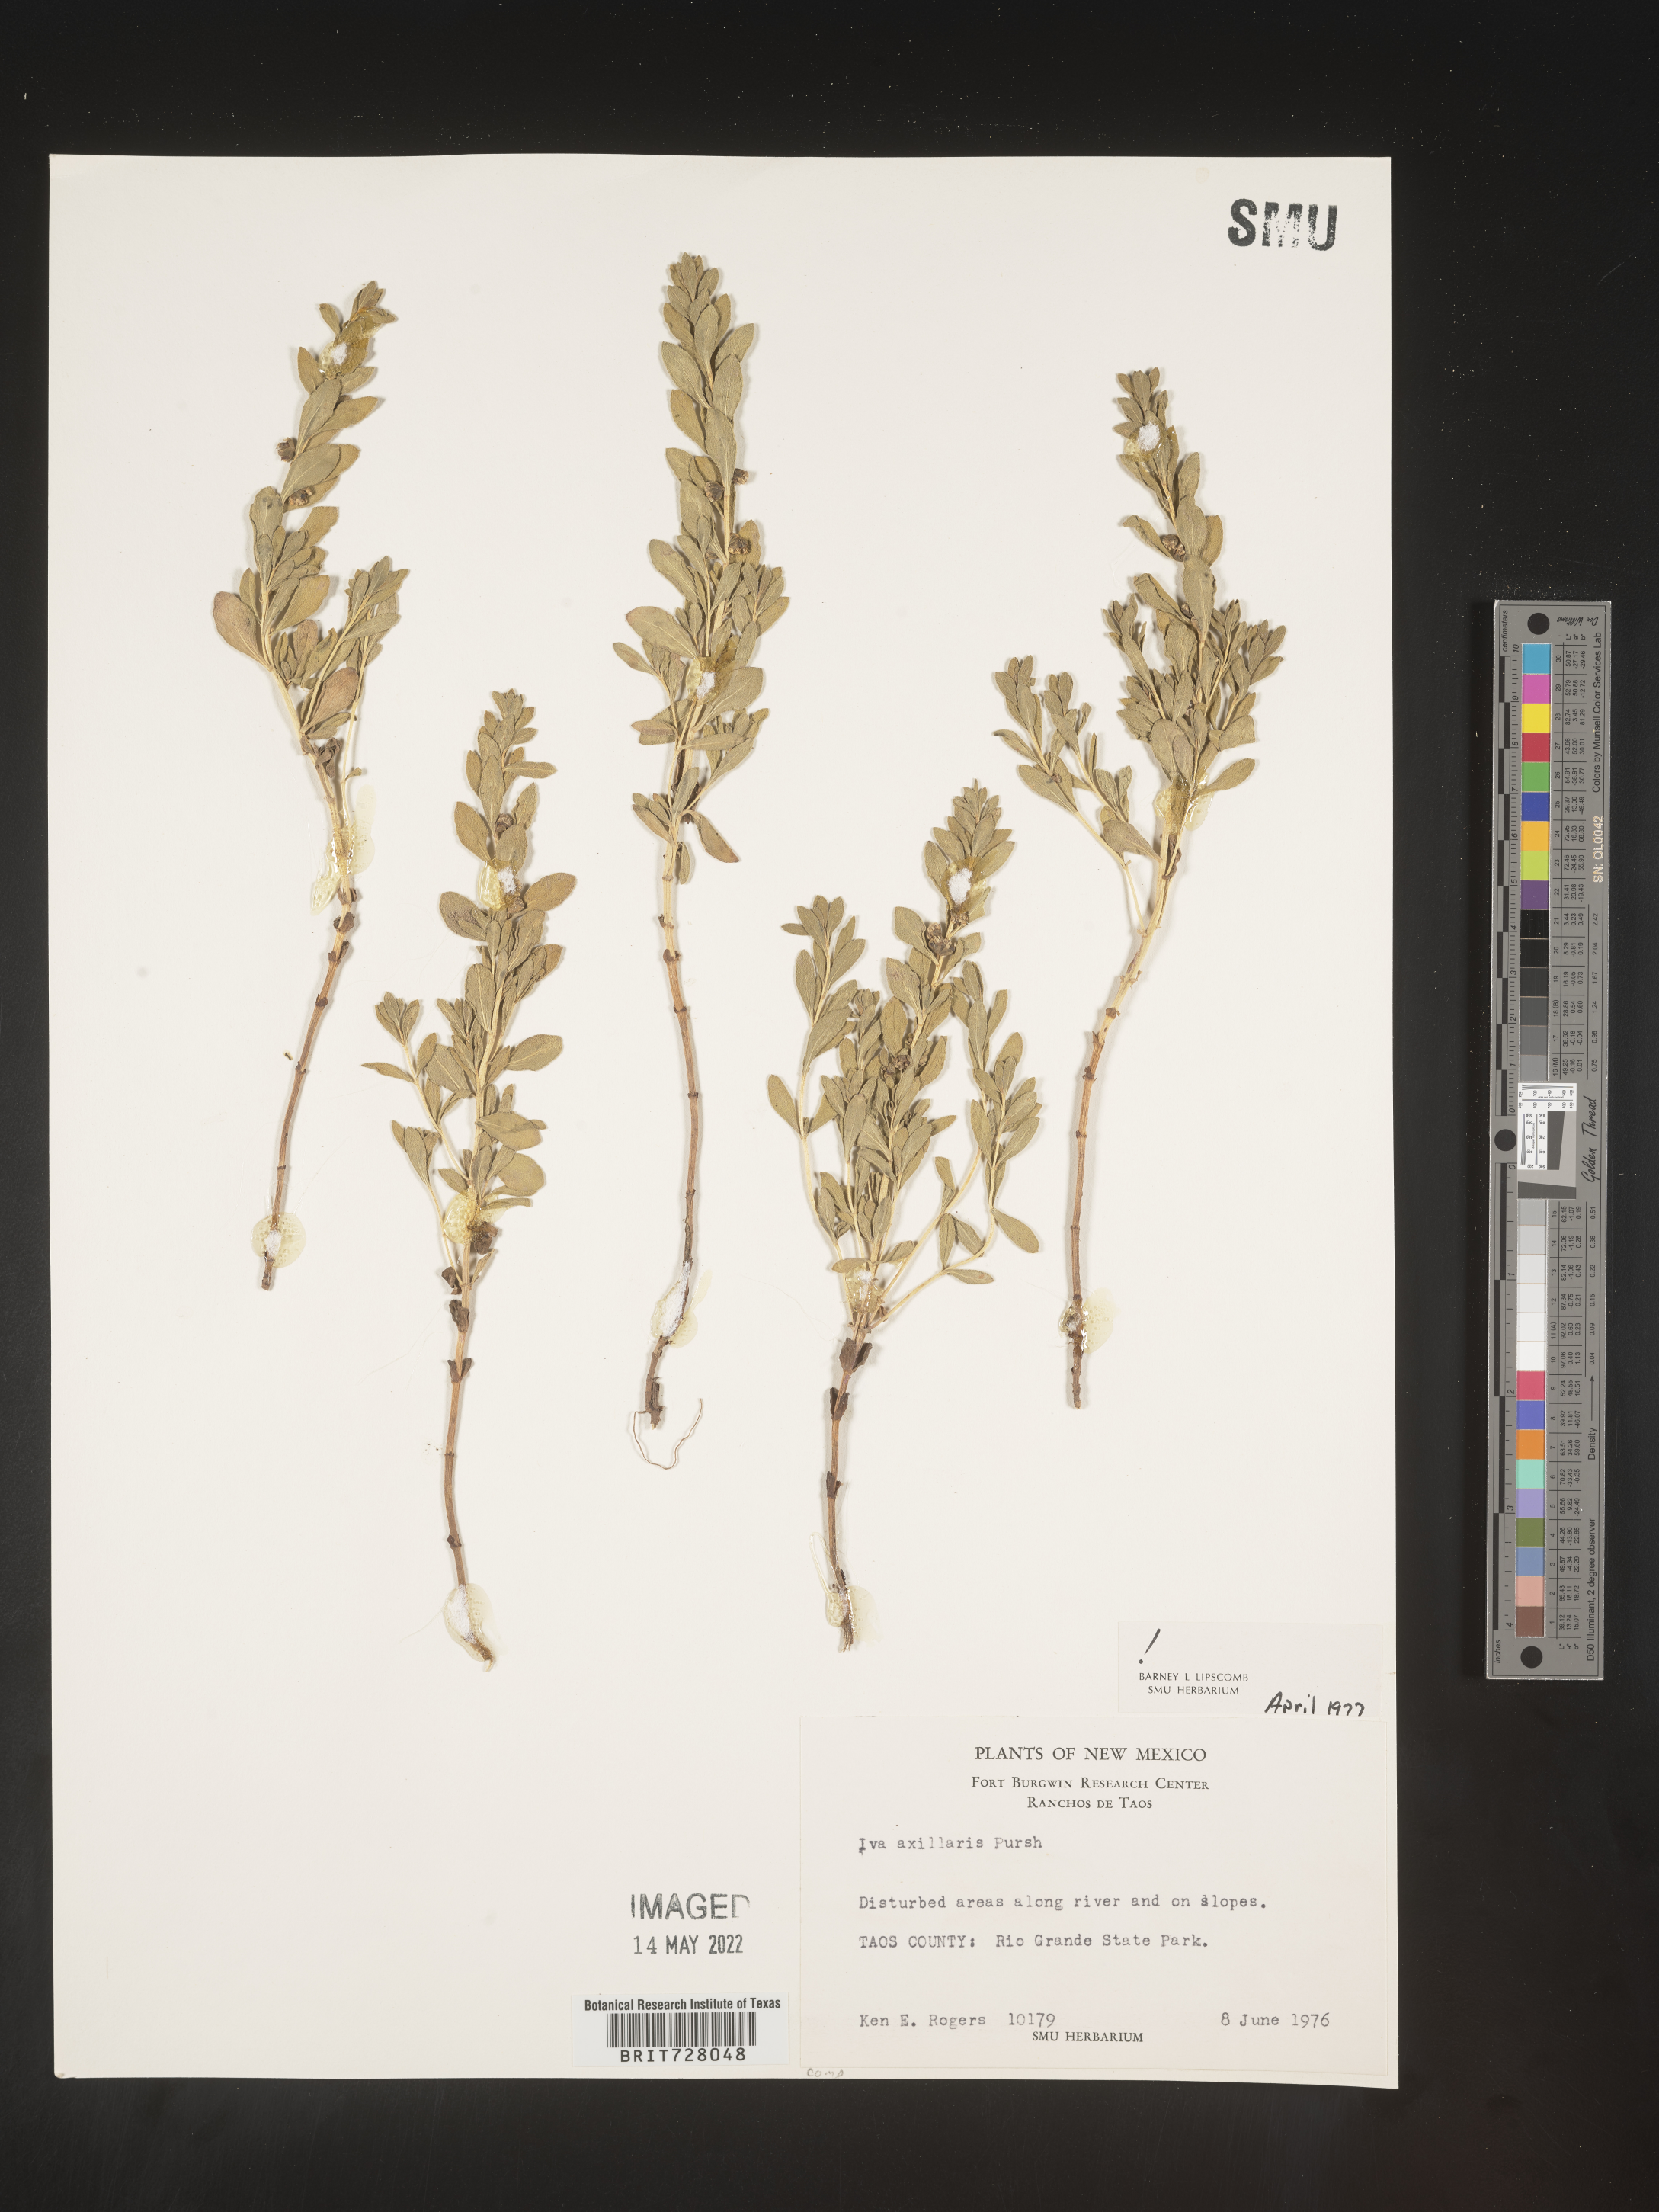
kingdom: Plantae
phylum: Tracheophyta
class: Magnoliopsida
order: Asterales
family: Asteraceae
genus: Iva
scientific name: Iva axillaris
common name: Poverty sumpweed
